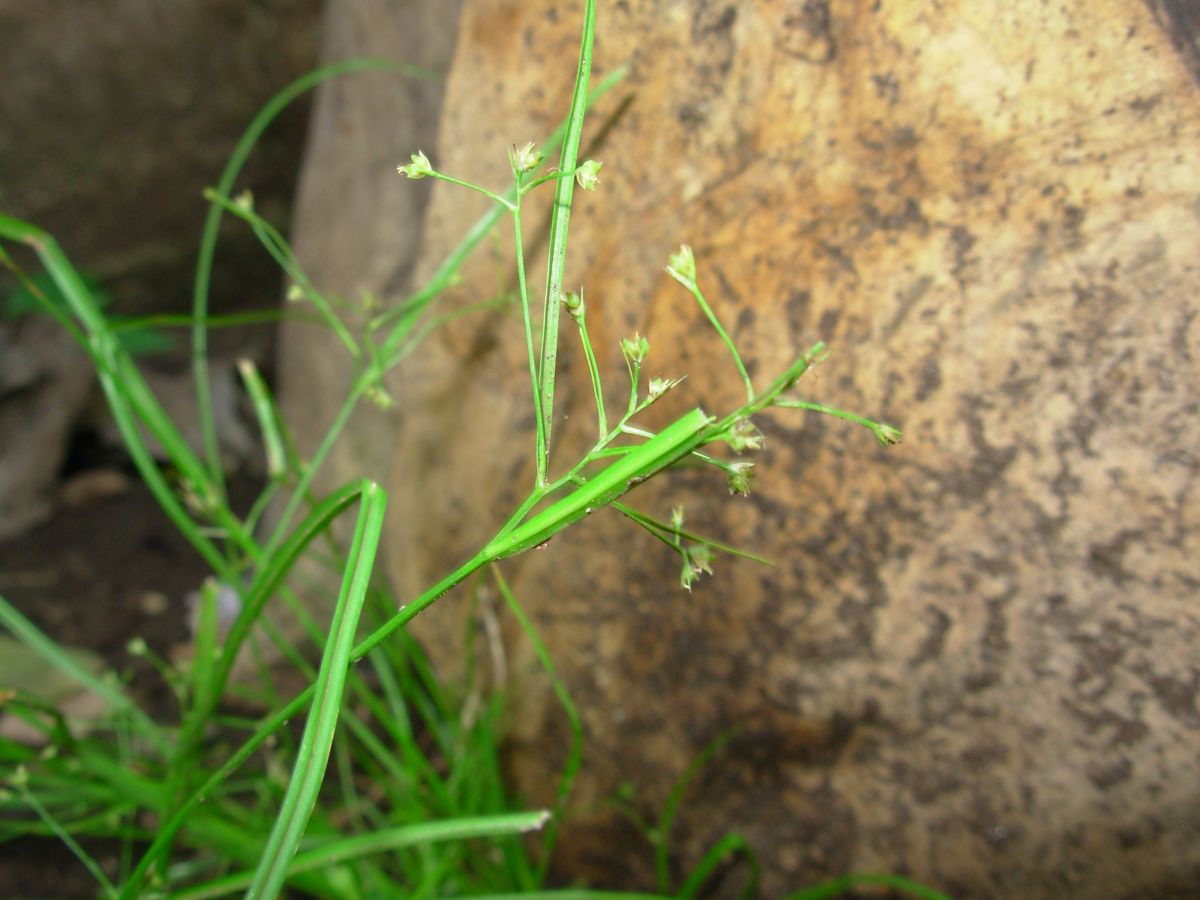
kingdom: Plantae
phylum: Tracheophyta
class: Liliopsida
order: Poales
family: Cyperaceae
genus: Rhynchospora
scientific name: Rhynchospora contracta
